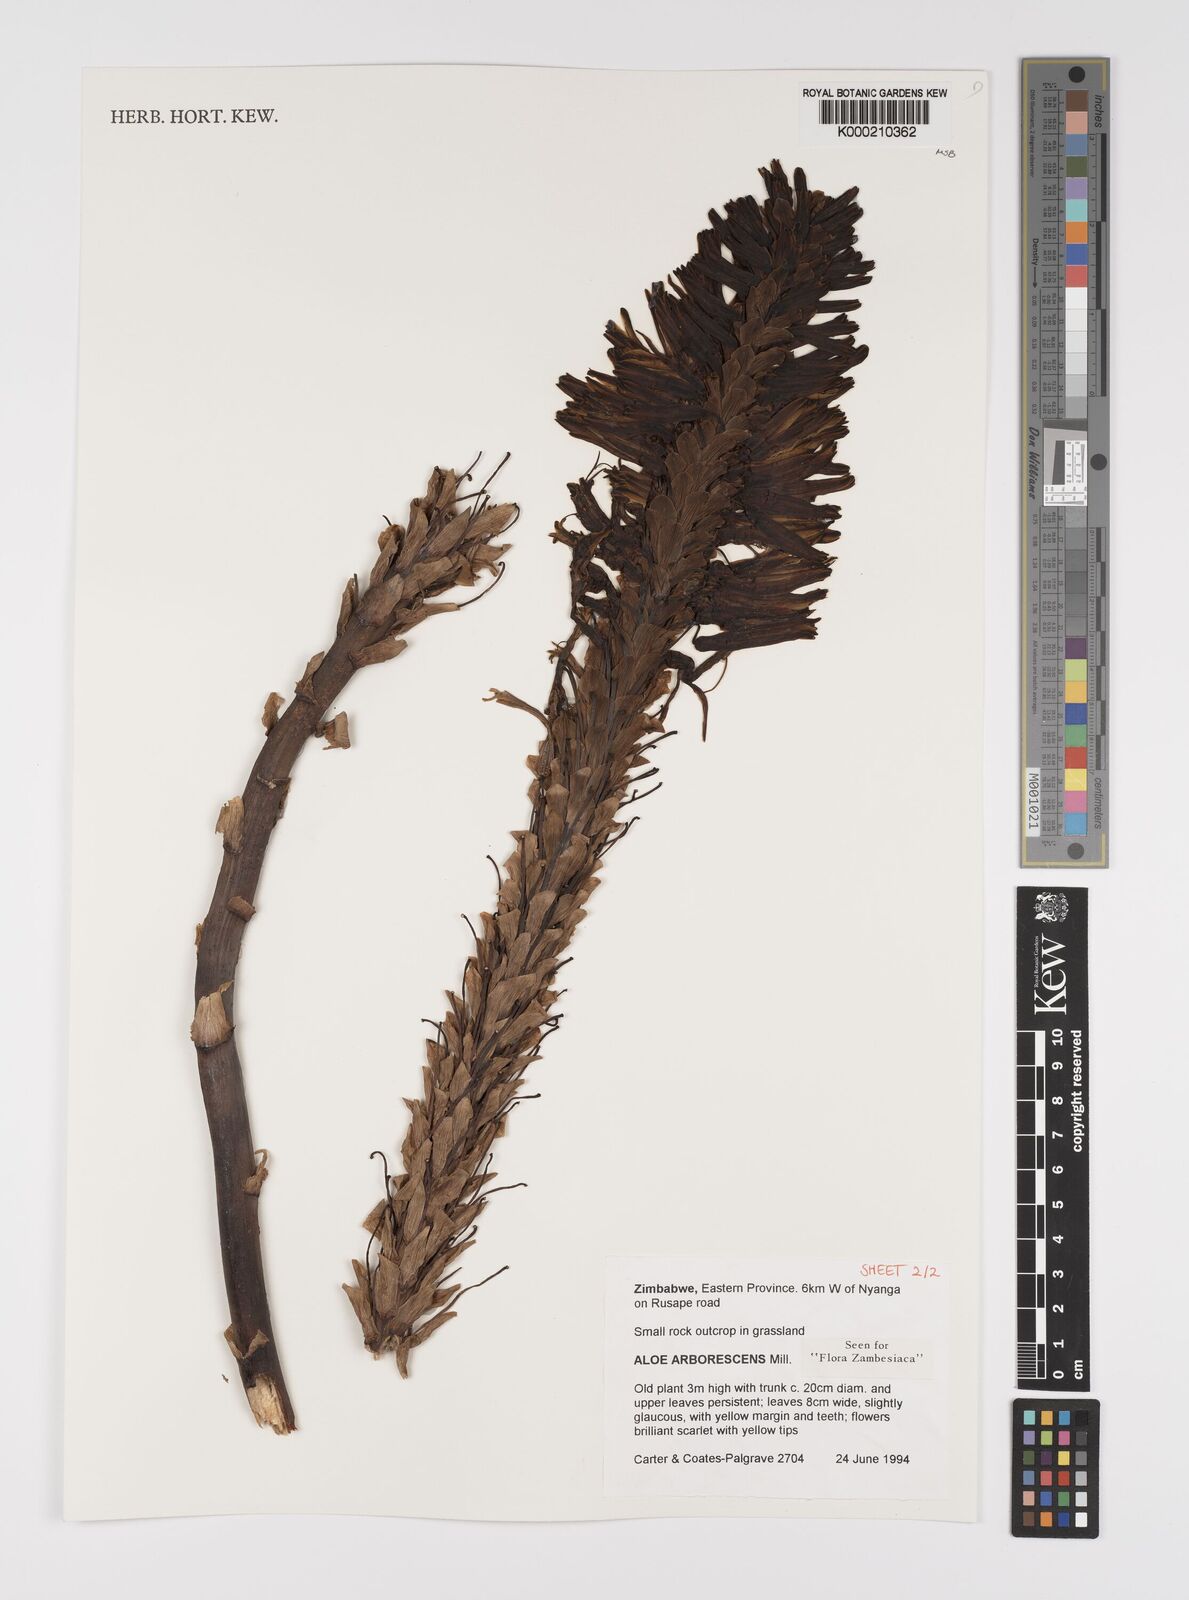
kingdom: Plantae
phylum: Tracheophyta
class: Liliopsida
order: Asparagales
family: Asphodelaceae
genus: Aloe
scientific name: Aloe arborescens
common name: Candelabra aloe
